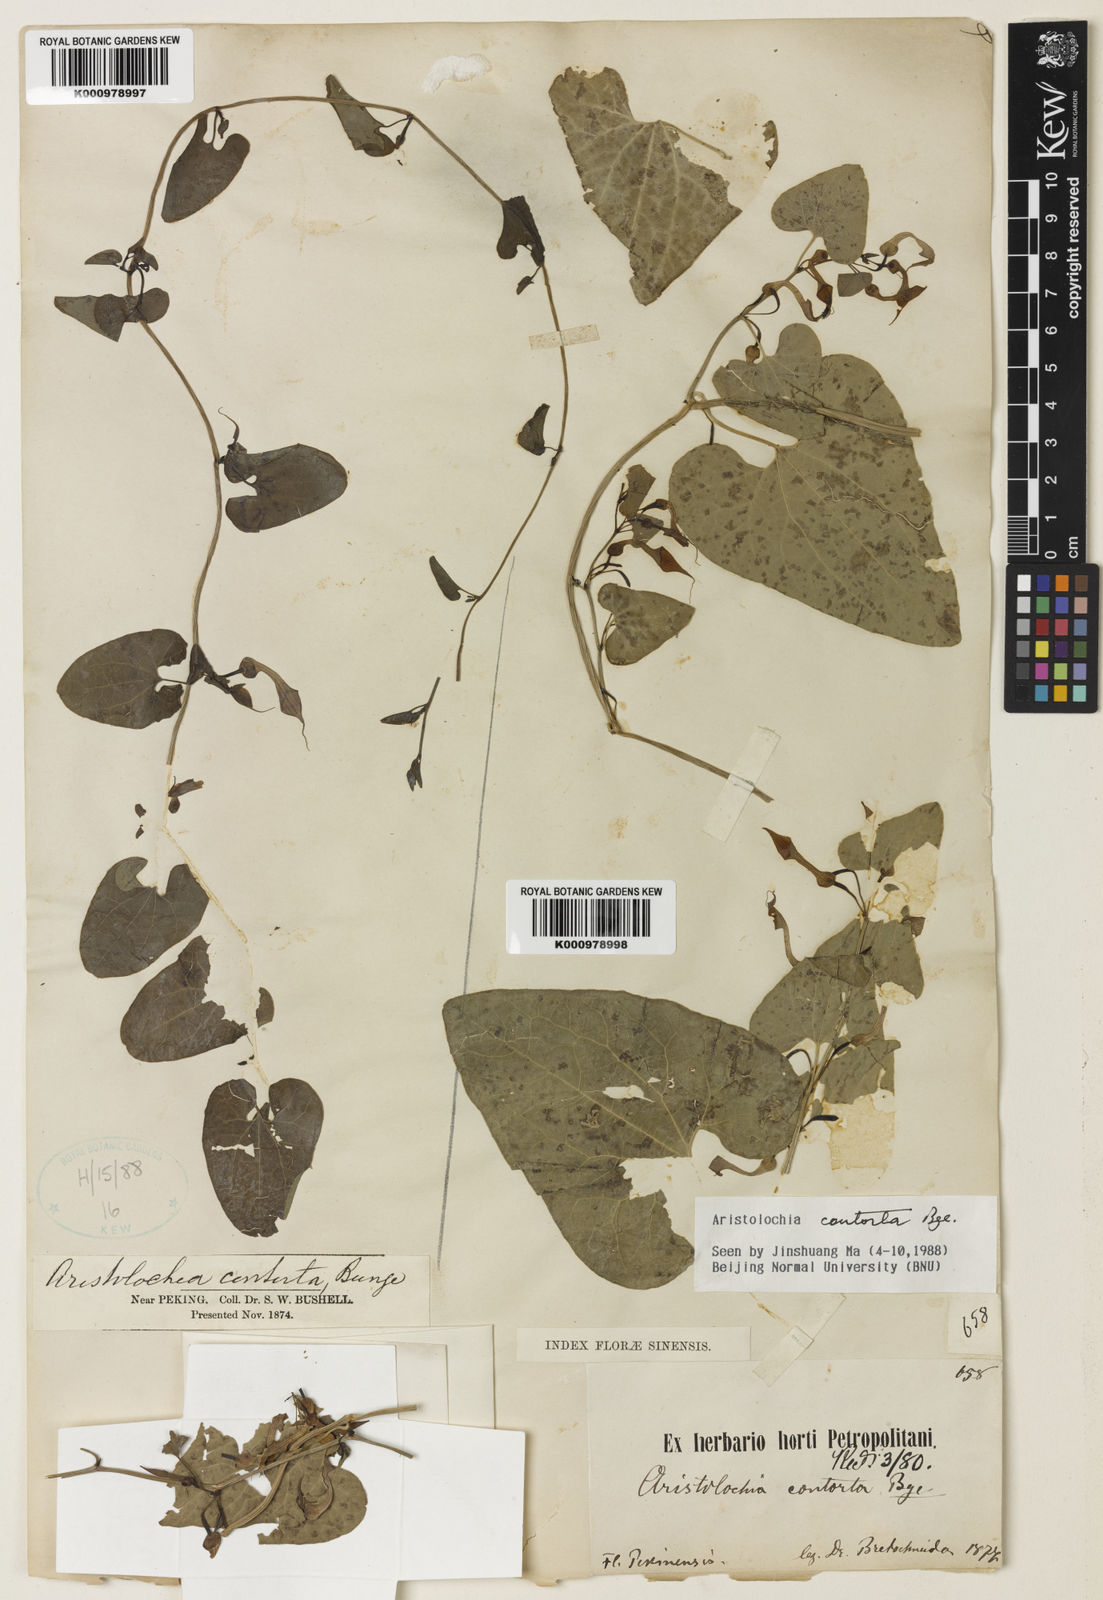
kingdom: Plantae
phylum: Tracheophyta
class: Magnoliopsida
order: Piperales
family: Aristolochiaceae
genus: Aristolochia
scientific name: Aristolochia contorta
